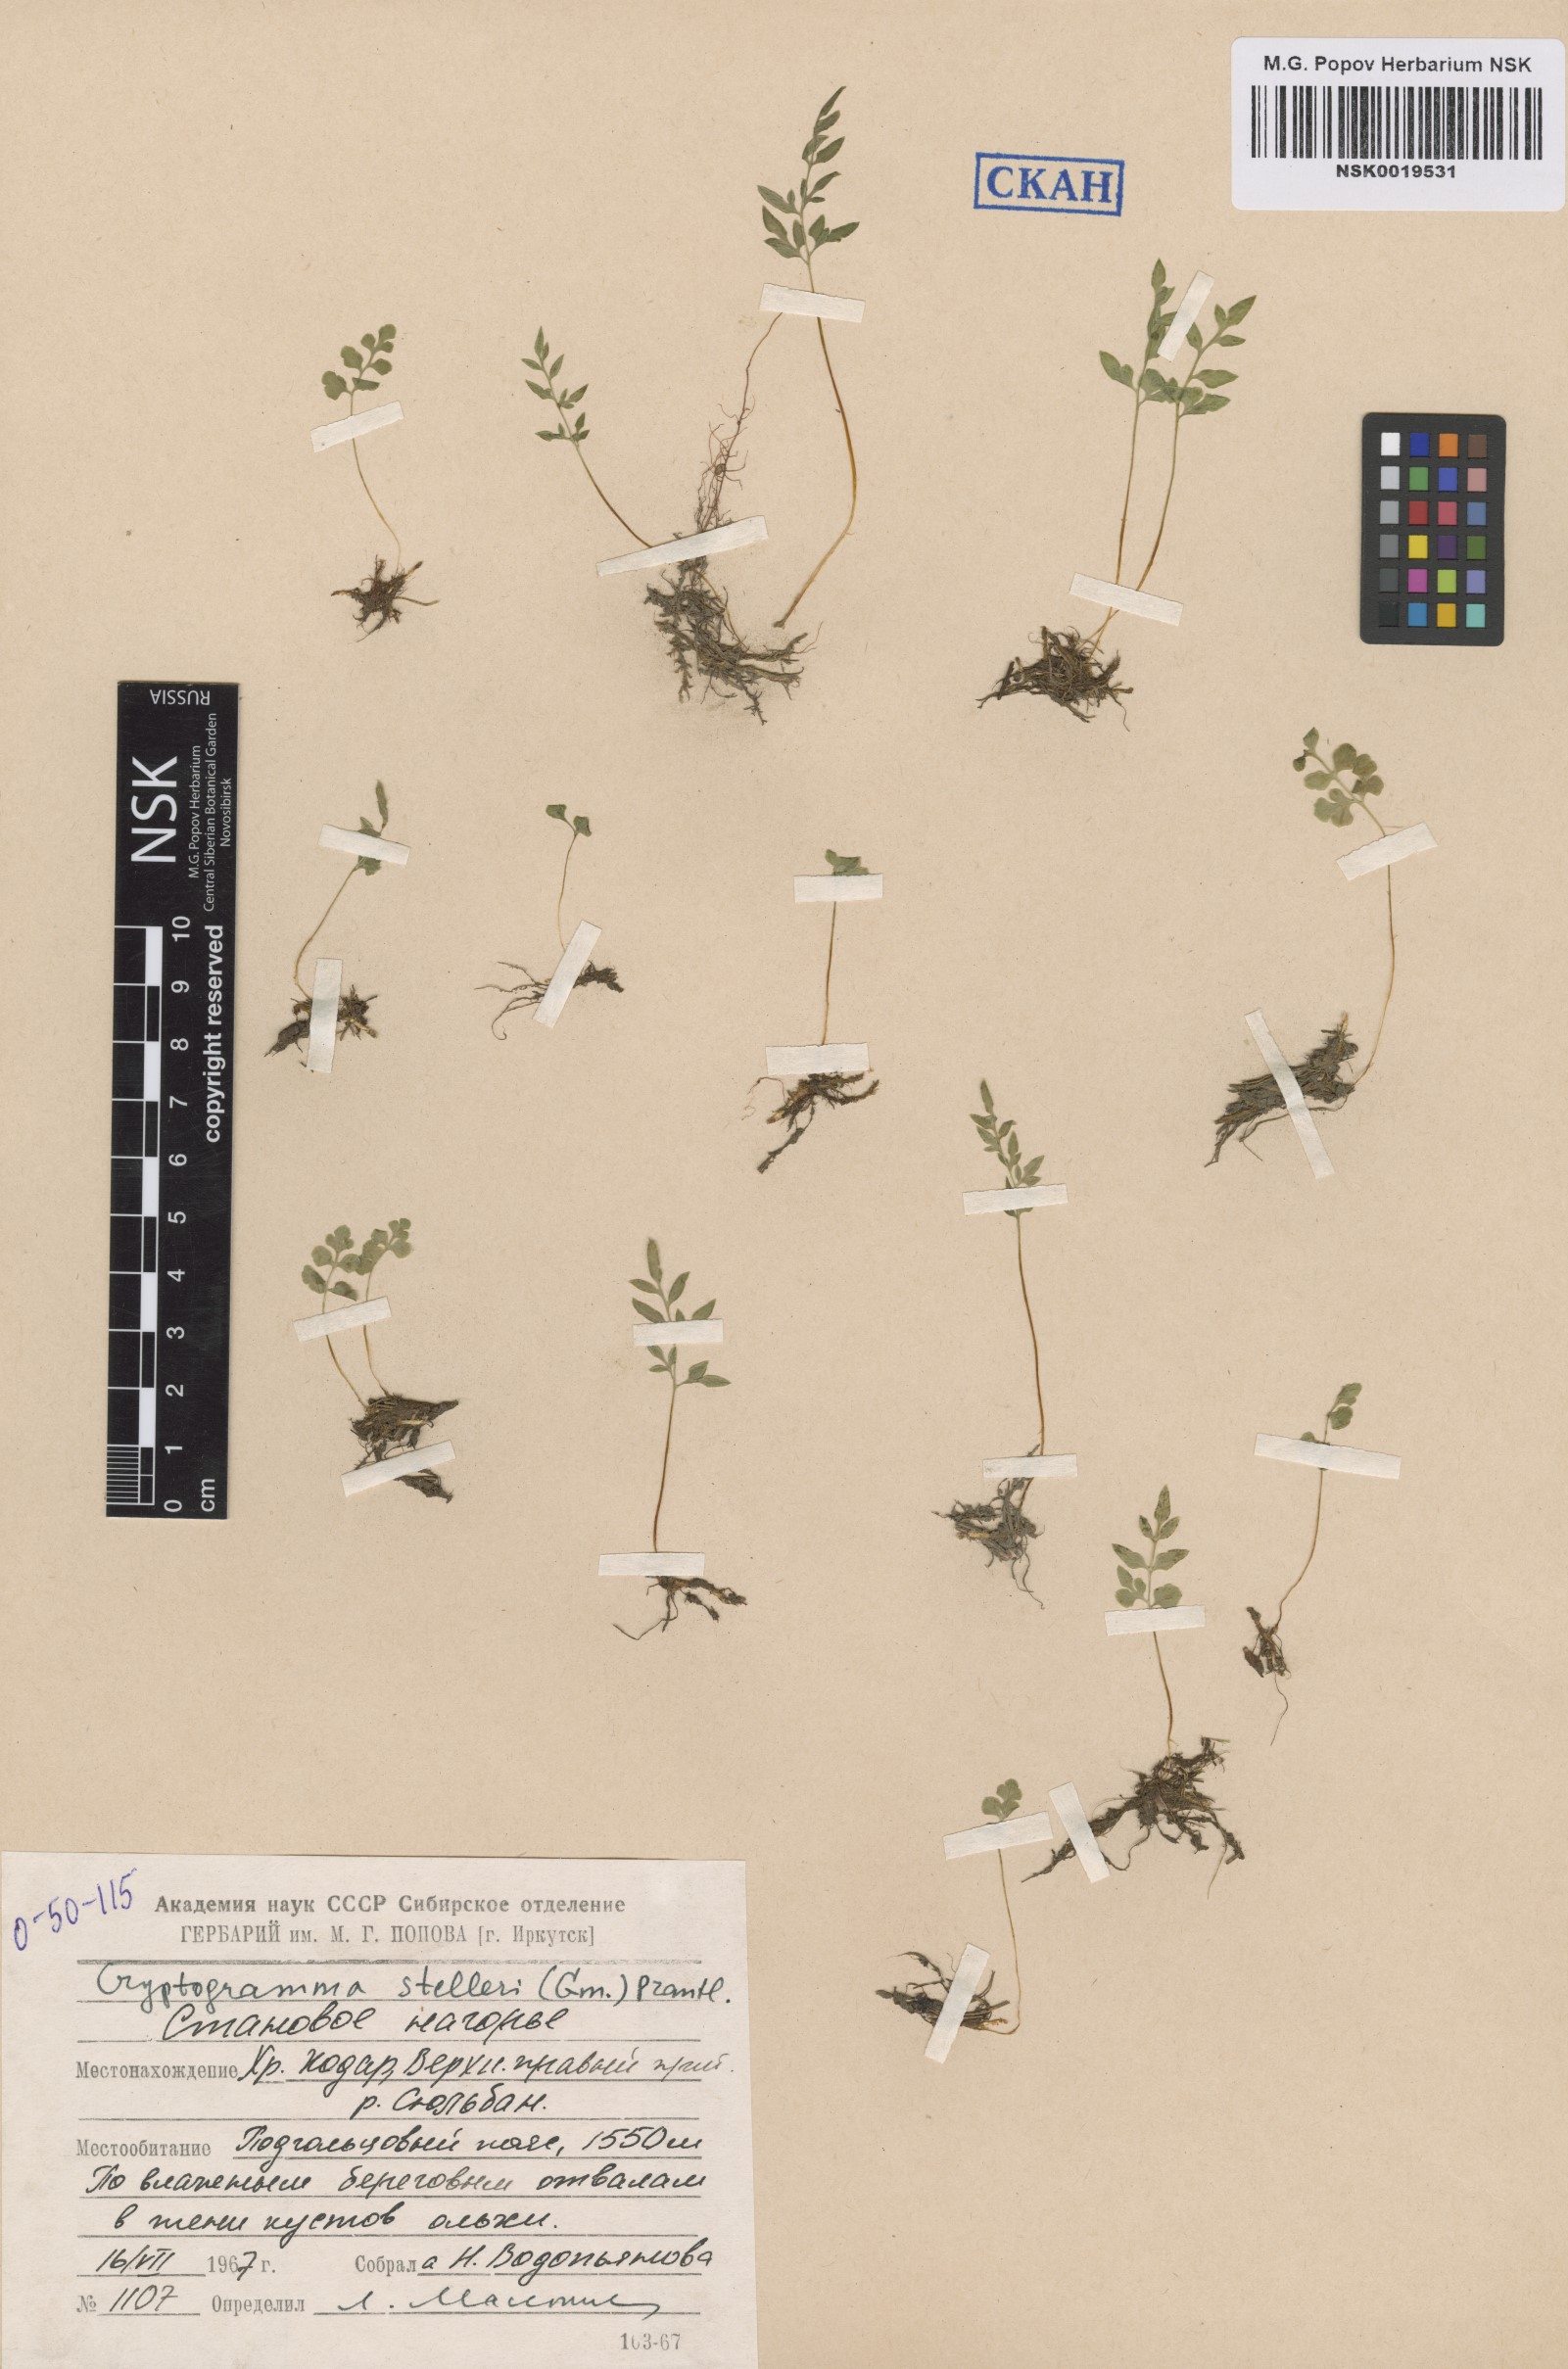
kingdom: Plantae
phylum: Tracheophyta
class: Polypodiopsida
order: Polypodiales
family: Pteridaceae
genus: Cryptogramma
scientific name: Cryptogramma stelleri
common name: Cliff-brake
